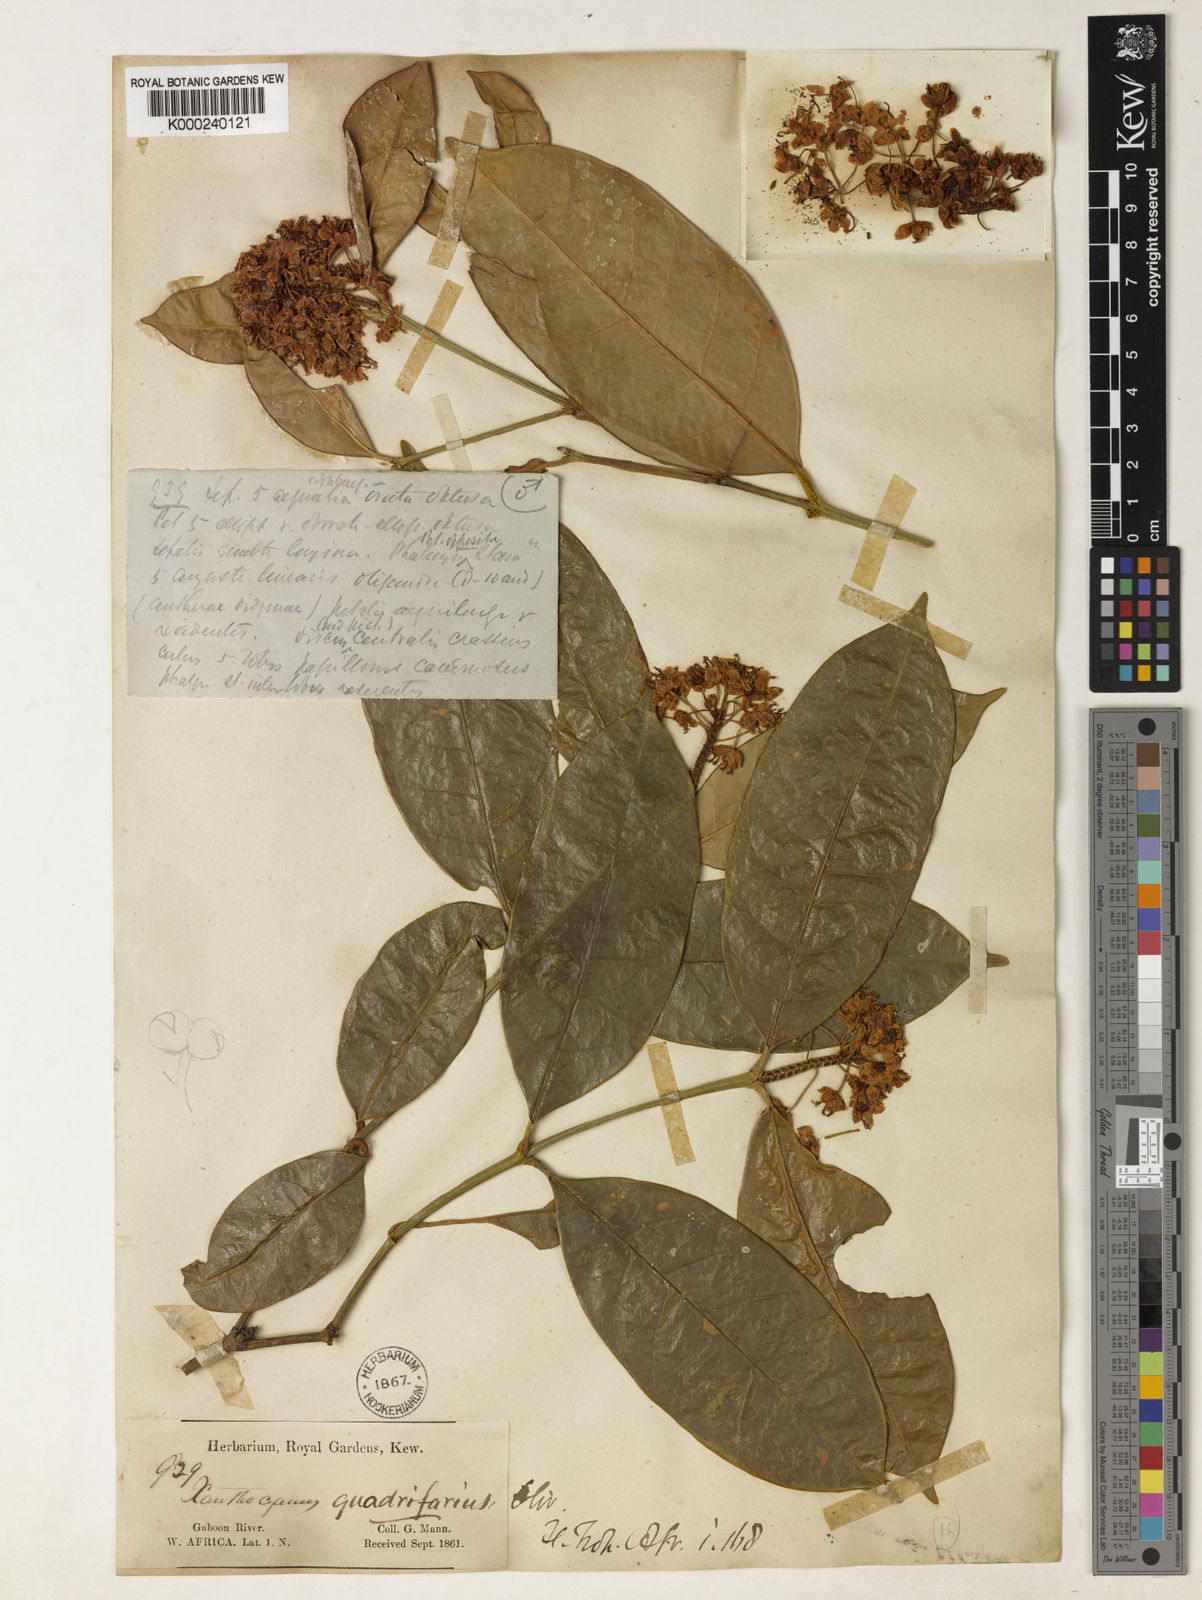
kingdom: Plantae
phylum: Tracheophyta
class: Magnoliopsida
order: Malpighiales
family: Clusiaceae
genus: Garcinia
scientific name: Garcinia
